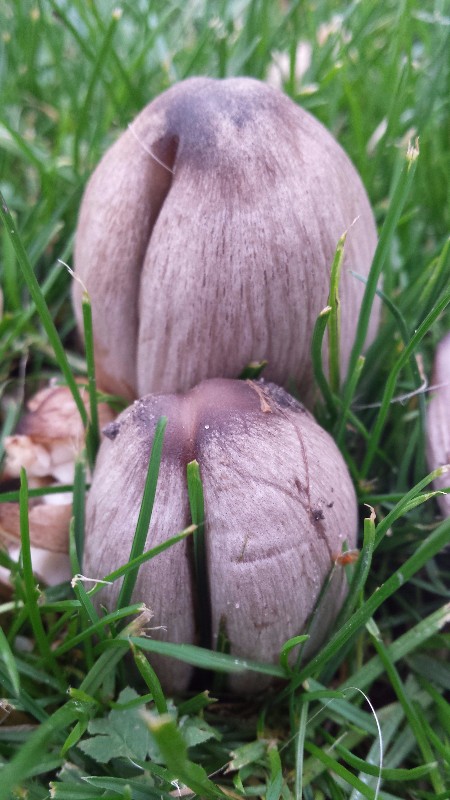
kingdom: Fungi
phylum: Basidiomycota
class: Agaricomycetes
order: Agaricales
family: Psathyrellaceae
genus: Coprinopsis
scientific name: Coprinopsis atramentaria
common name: almindelig blækhat
